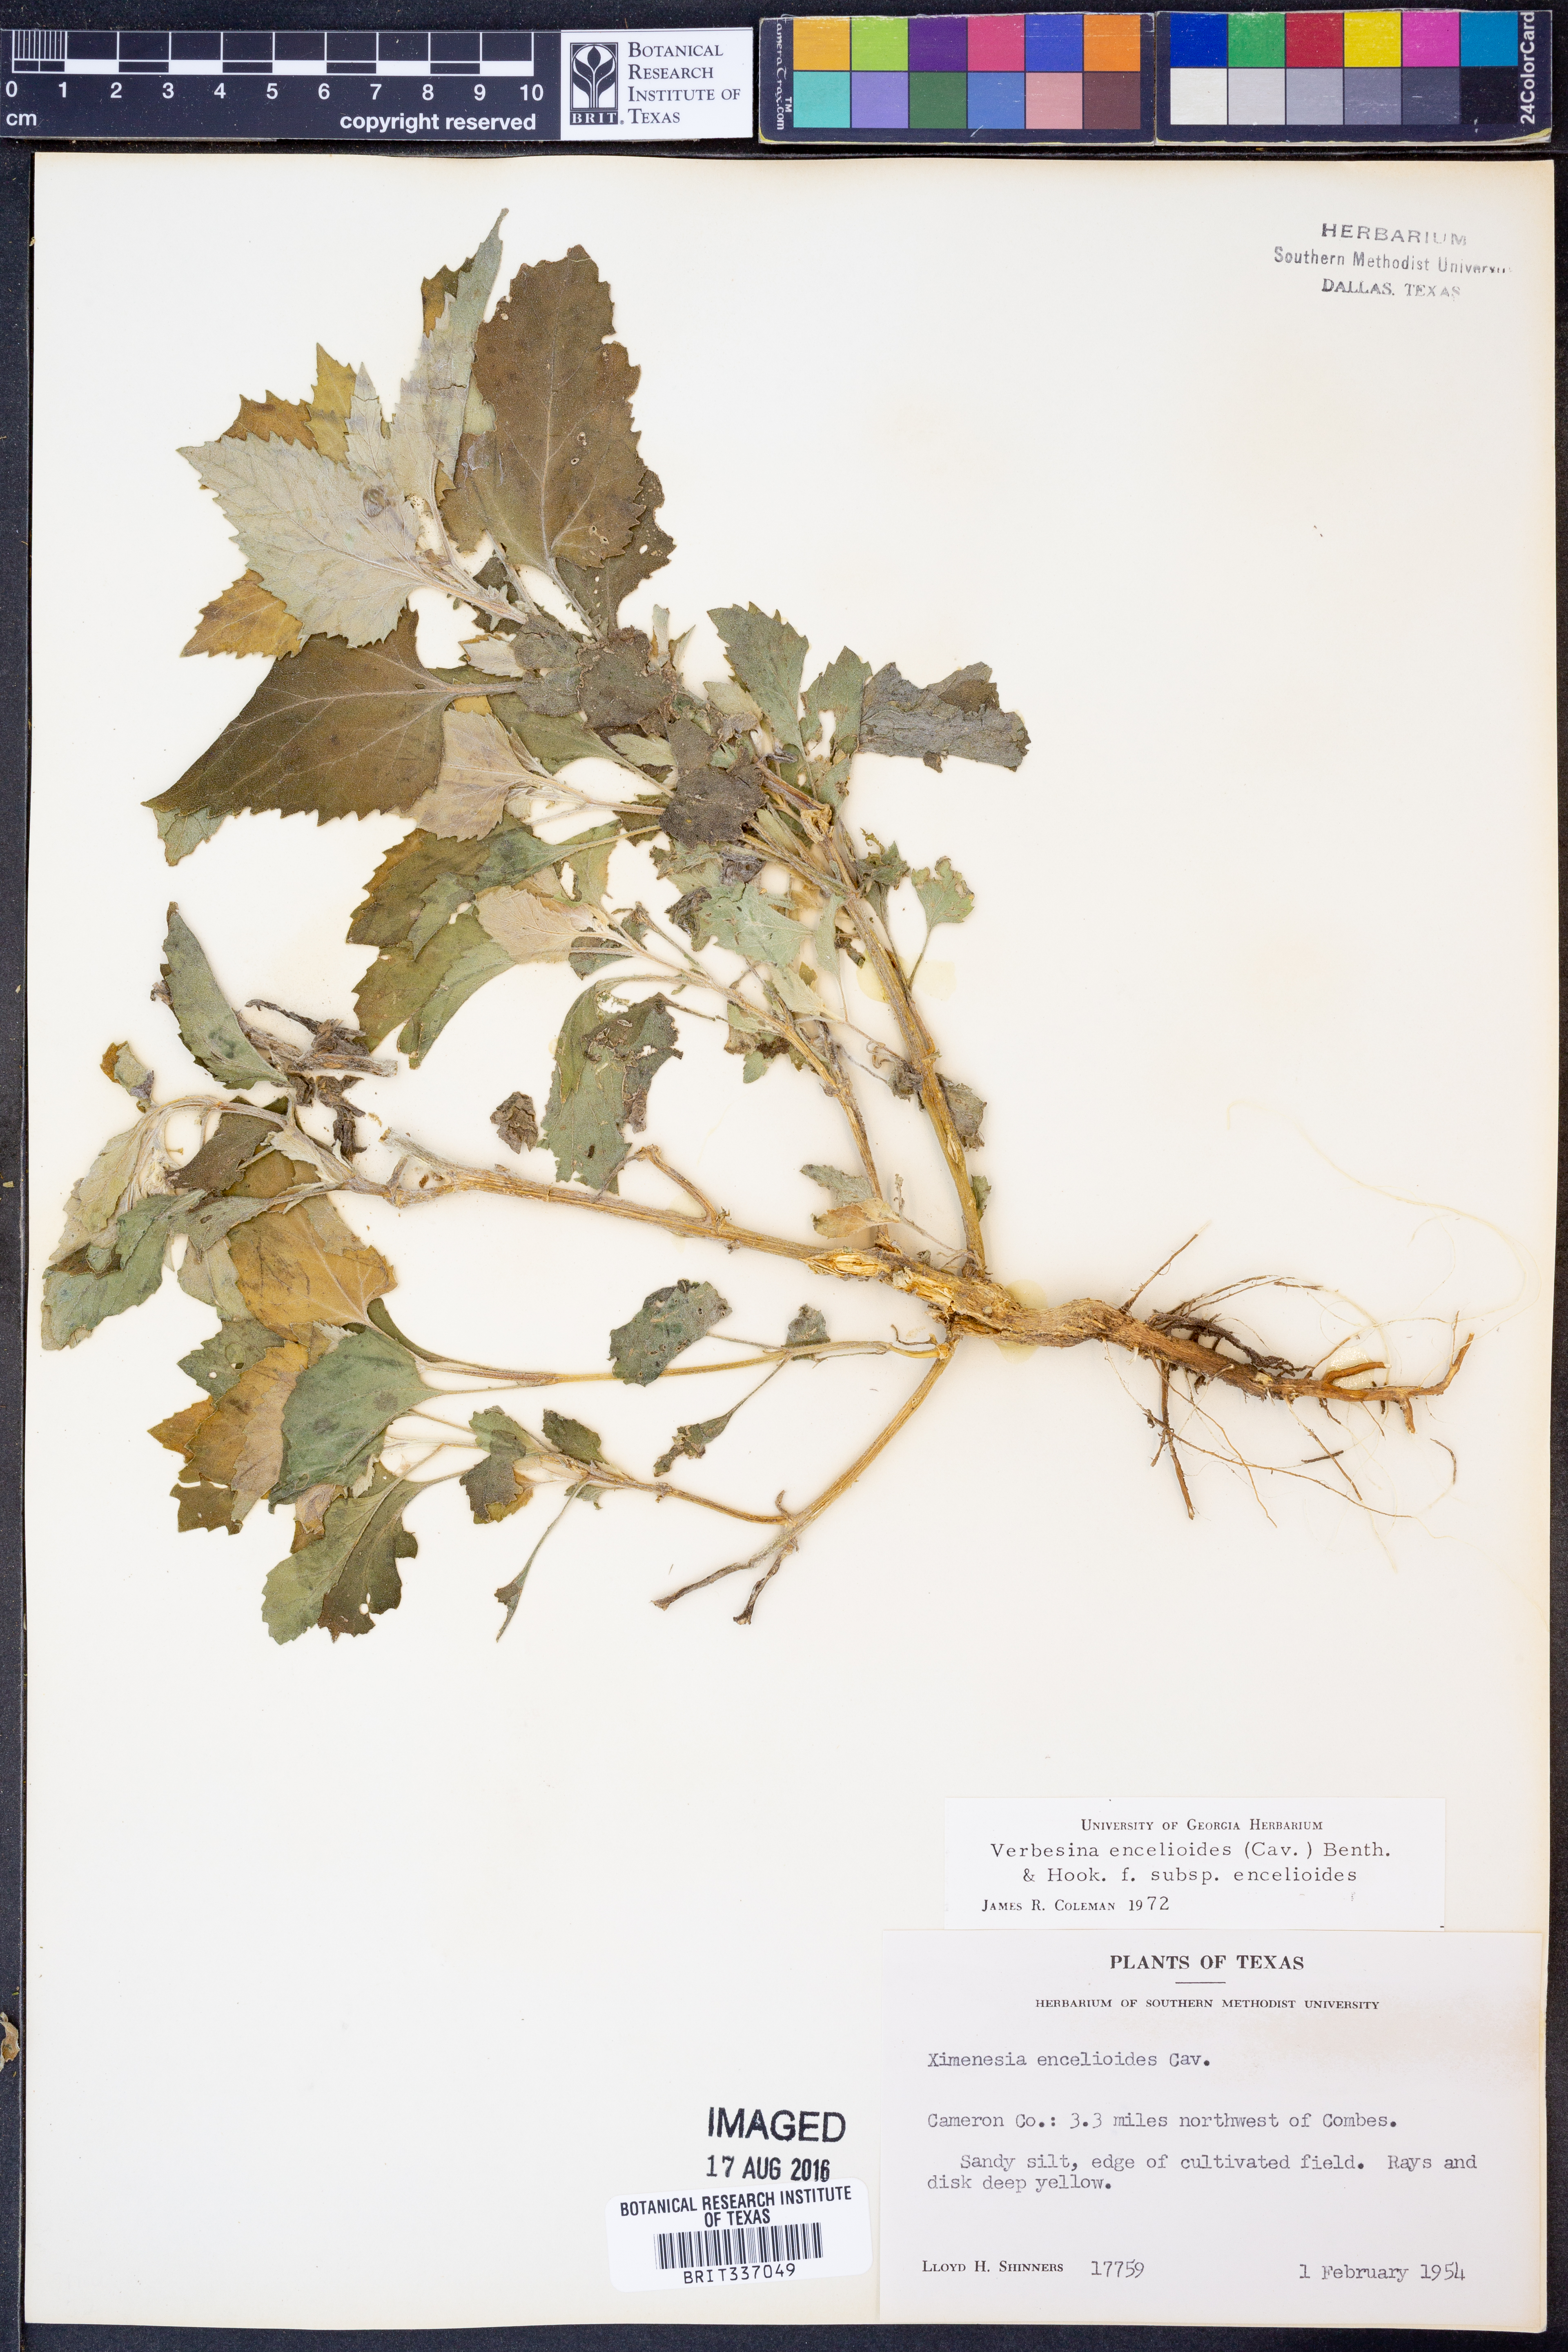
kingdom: Plantae
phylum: Tracheophyta
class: Magnoliopsida
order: Asterales
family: Asteraceae
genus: Verbesina
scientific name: Verbesina encelioides
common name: Golden crownbeard
